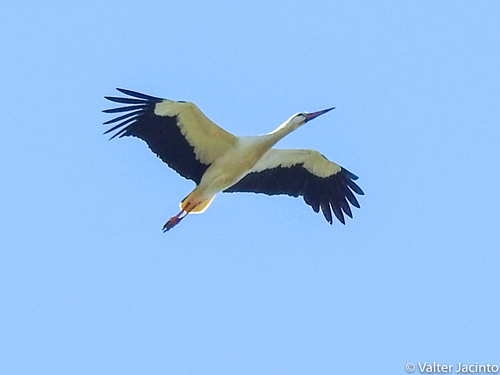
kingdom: Animalia
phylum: Chordata
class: Aves
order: Ciconiiformes
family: Ciconiidae
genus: Ciconia
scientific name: Ciconia ciconia
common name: White stork
